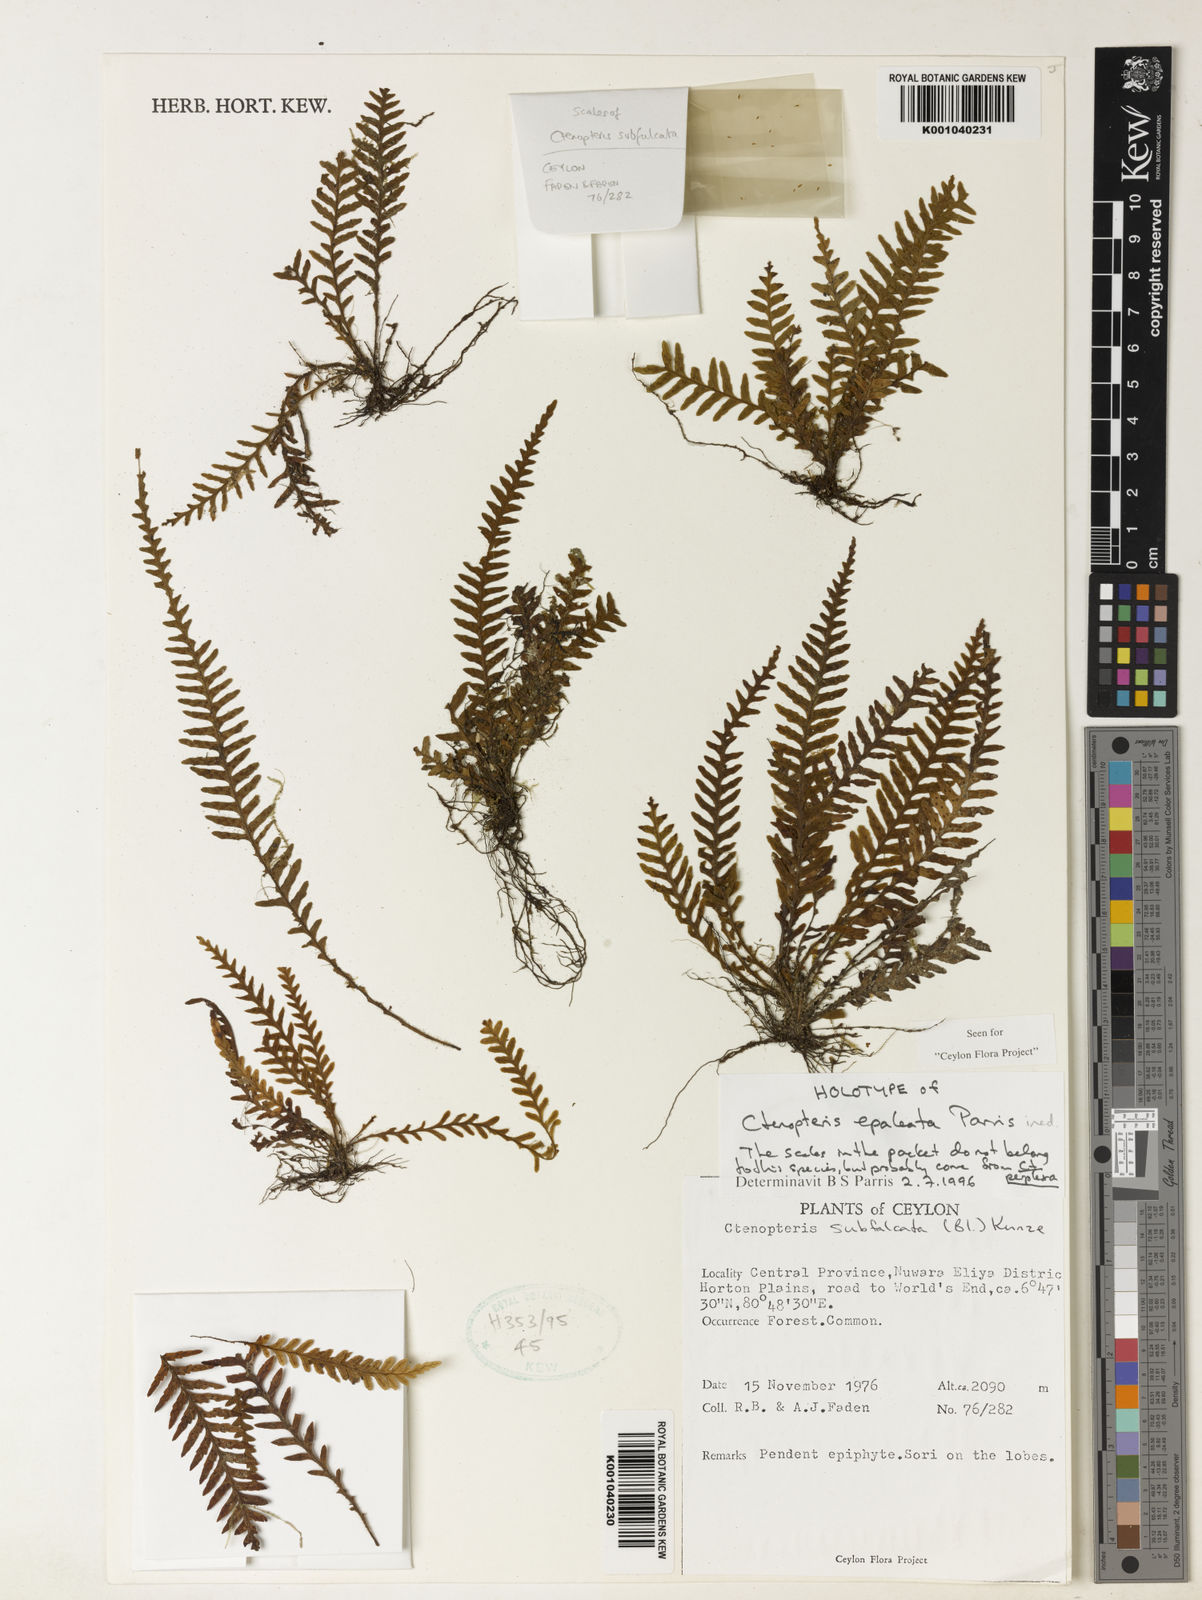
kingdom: Plantae
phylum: Tracheophyta
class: Polypodiopsida
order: Polypodiales
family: Polypodiaceae
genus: Tomophyllum
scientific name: Tomophyllum epaleatum
